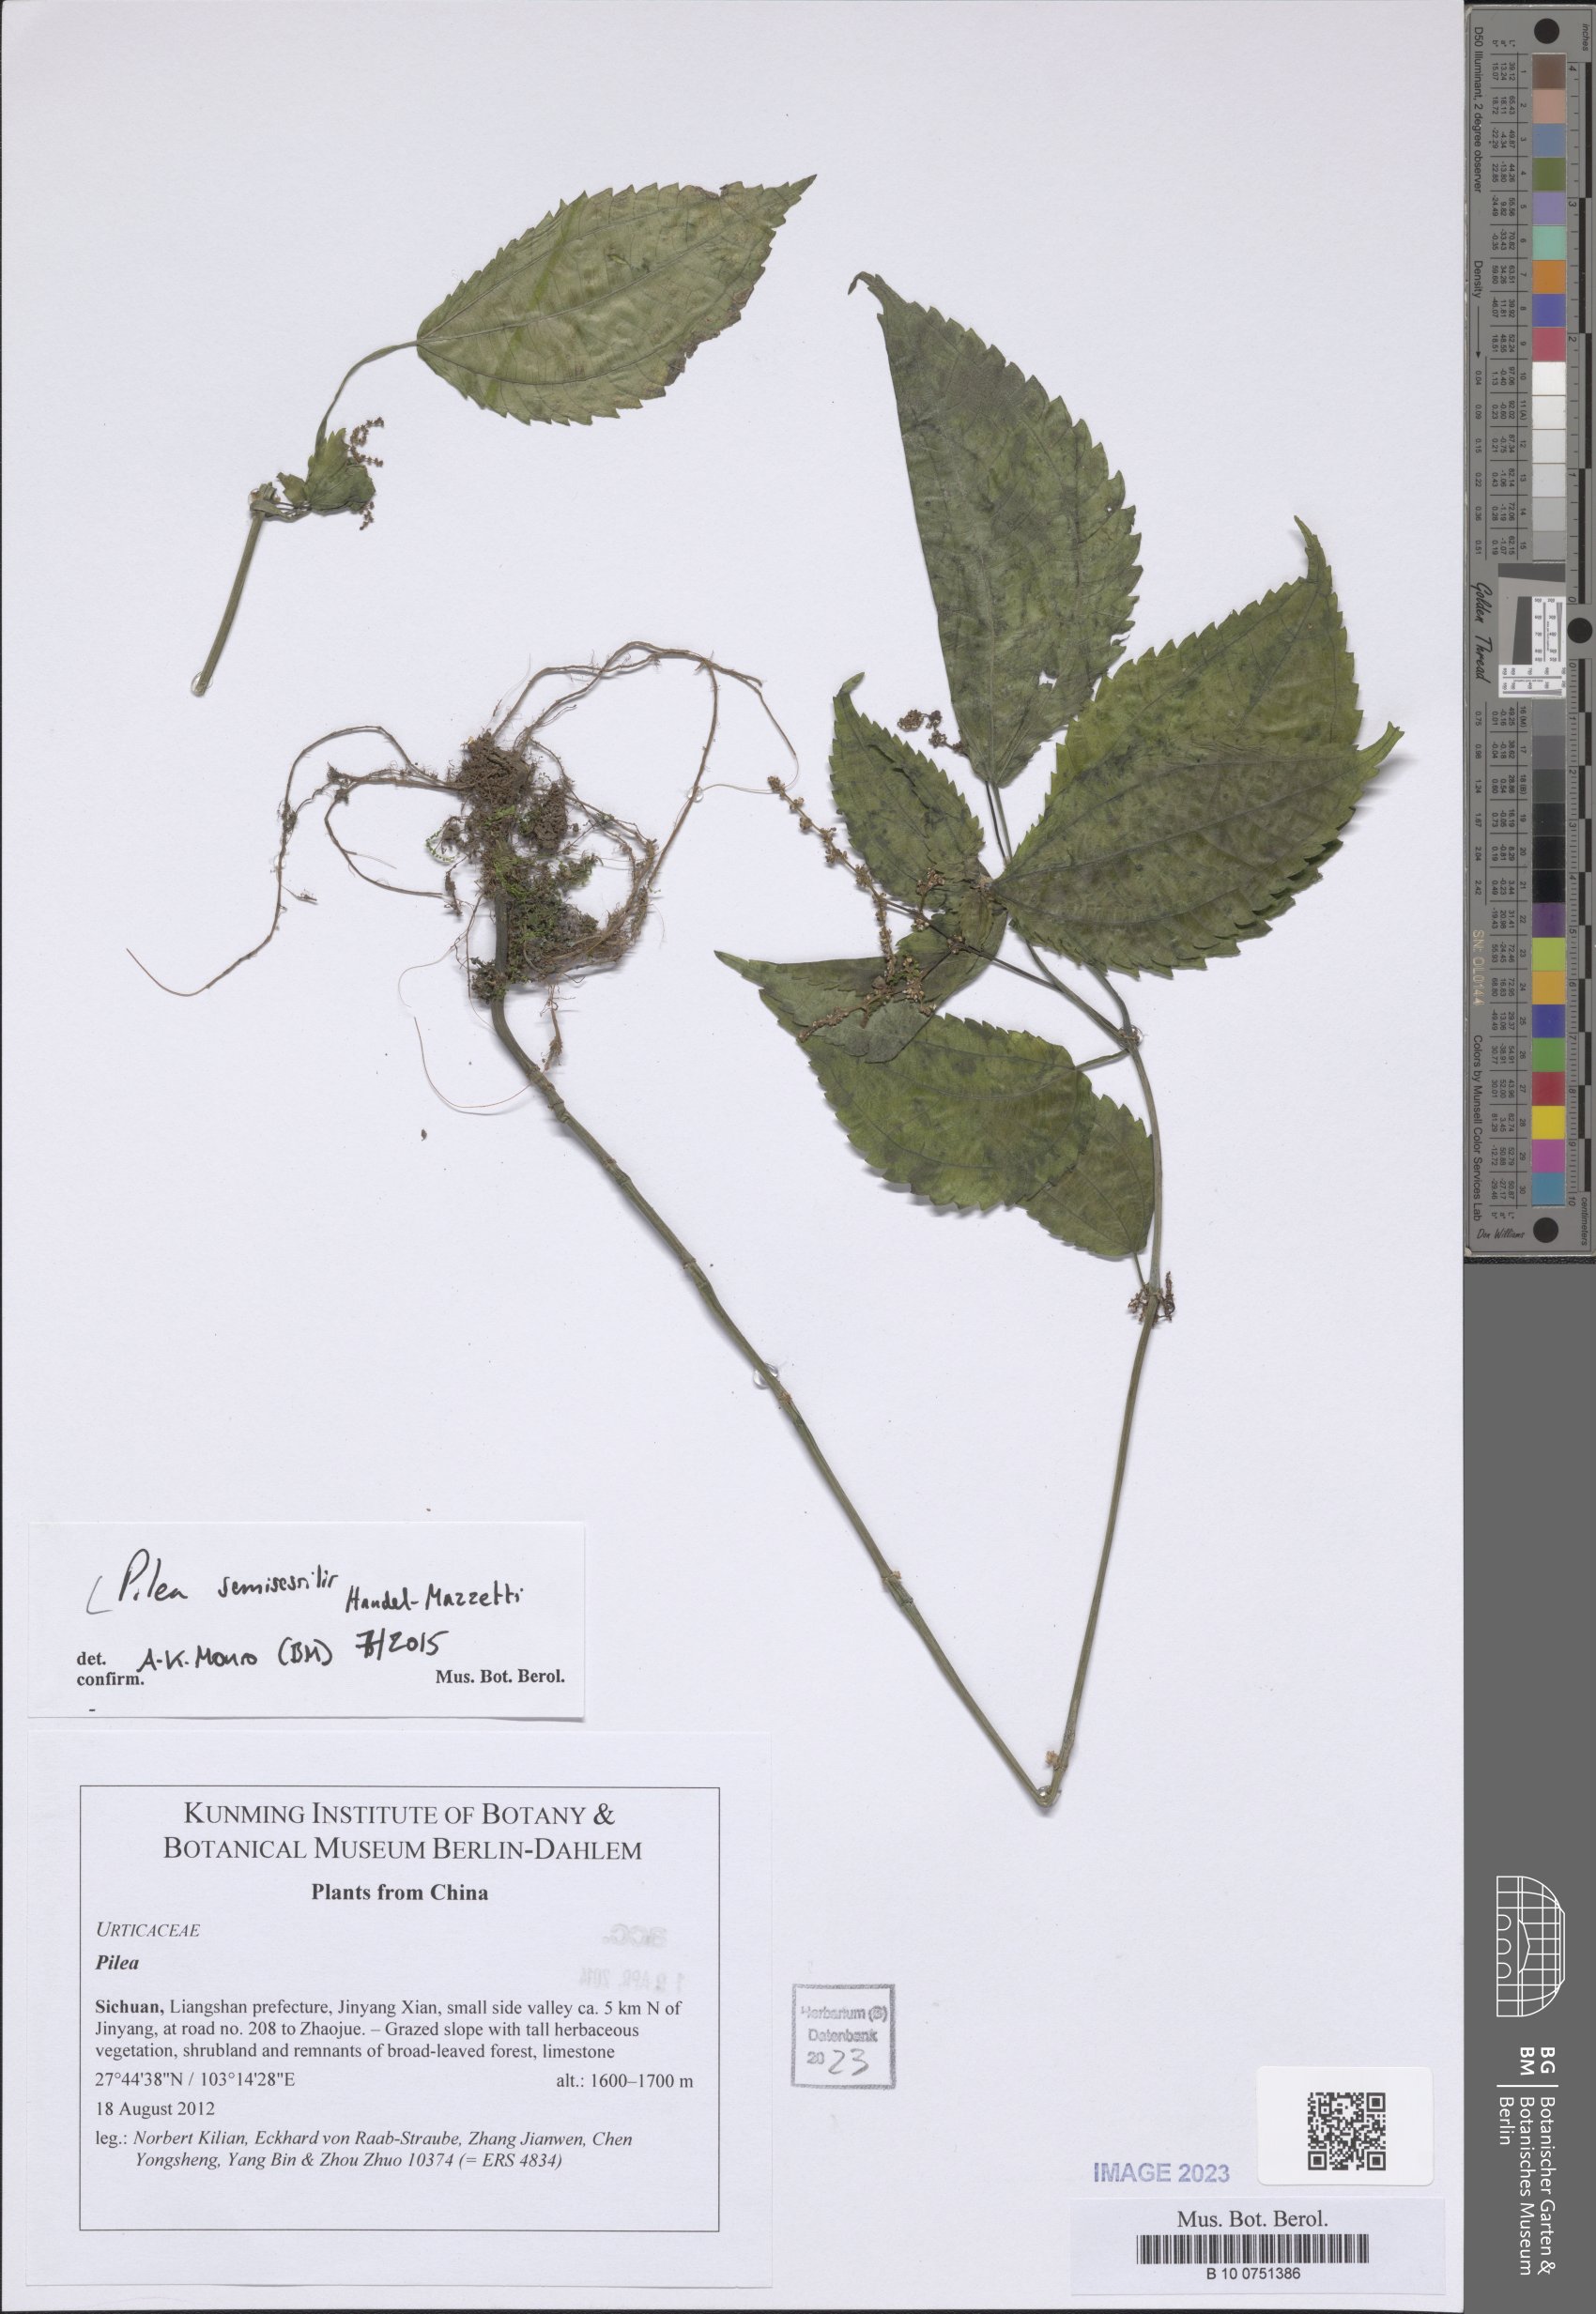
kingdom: Plantae
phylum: Tracheophyta
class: Magnoliopsida
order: Rosales
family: Urticaceae
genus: Pilea
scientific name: Pilea semisessilis
